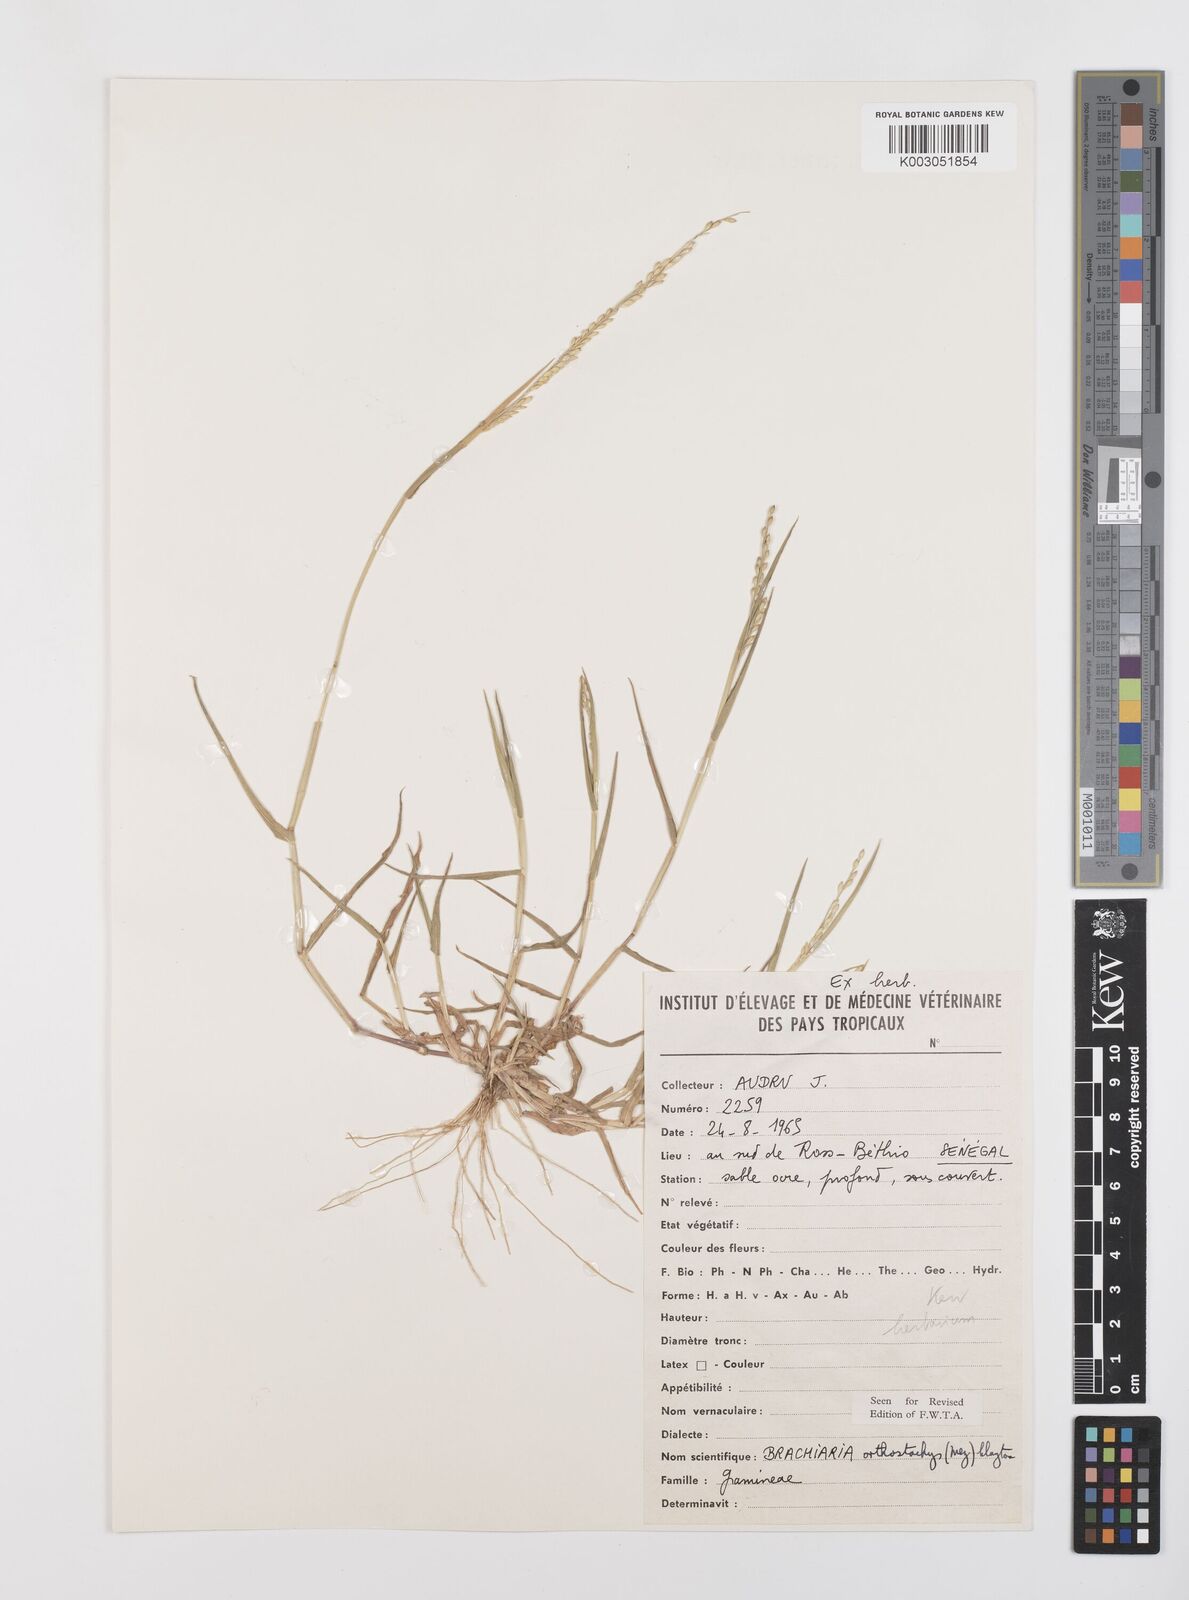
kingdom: Plantae
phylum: Tracheophyta
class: Liliopsida
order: Poales
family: Poaceae
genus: Urochloa
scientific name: Urochloa orthostachys
